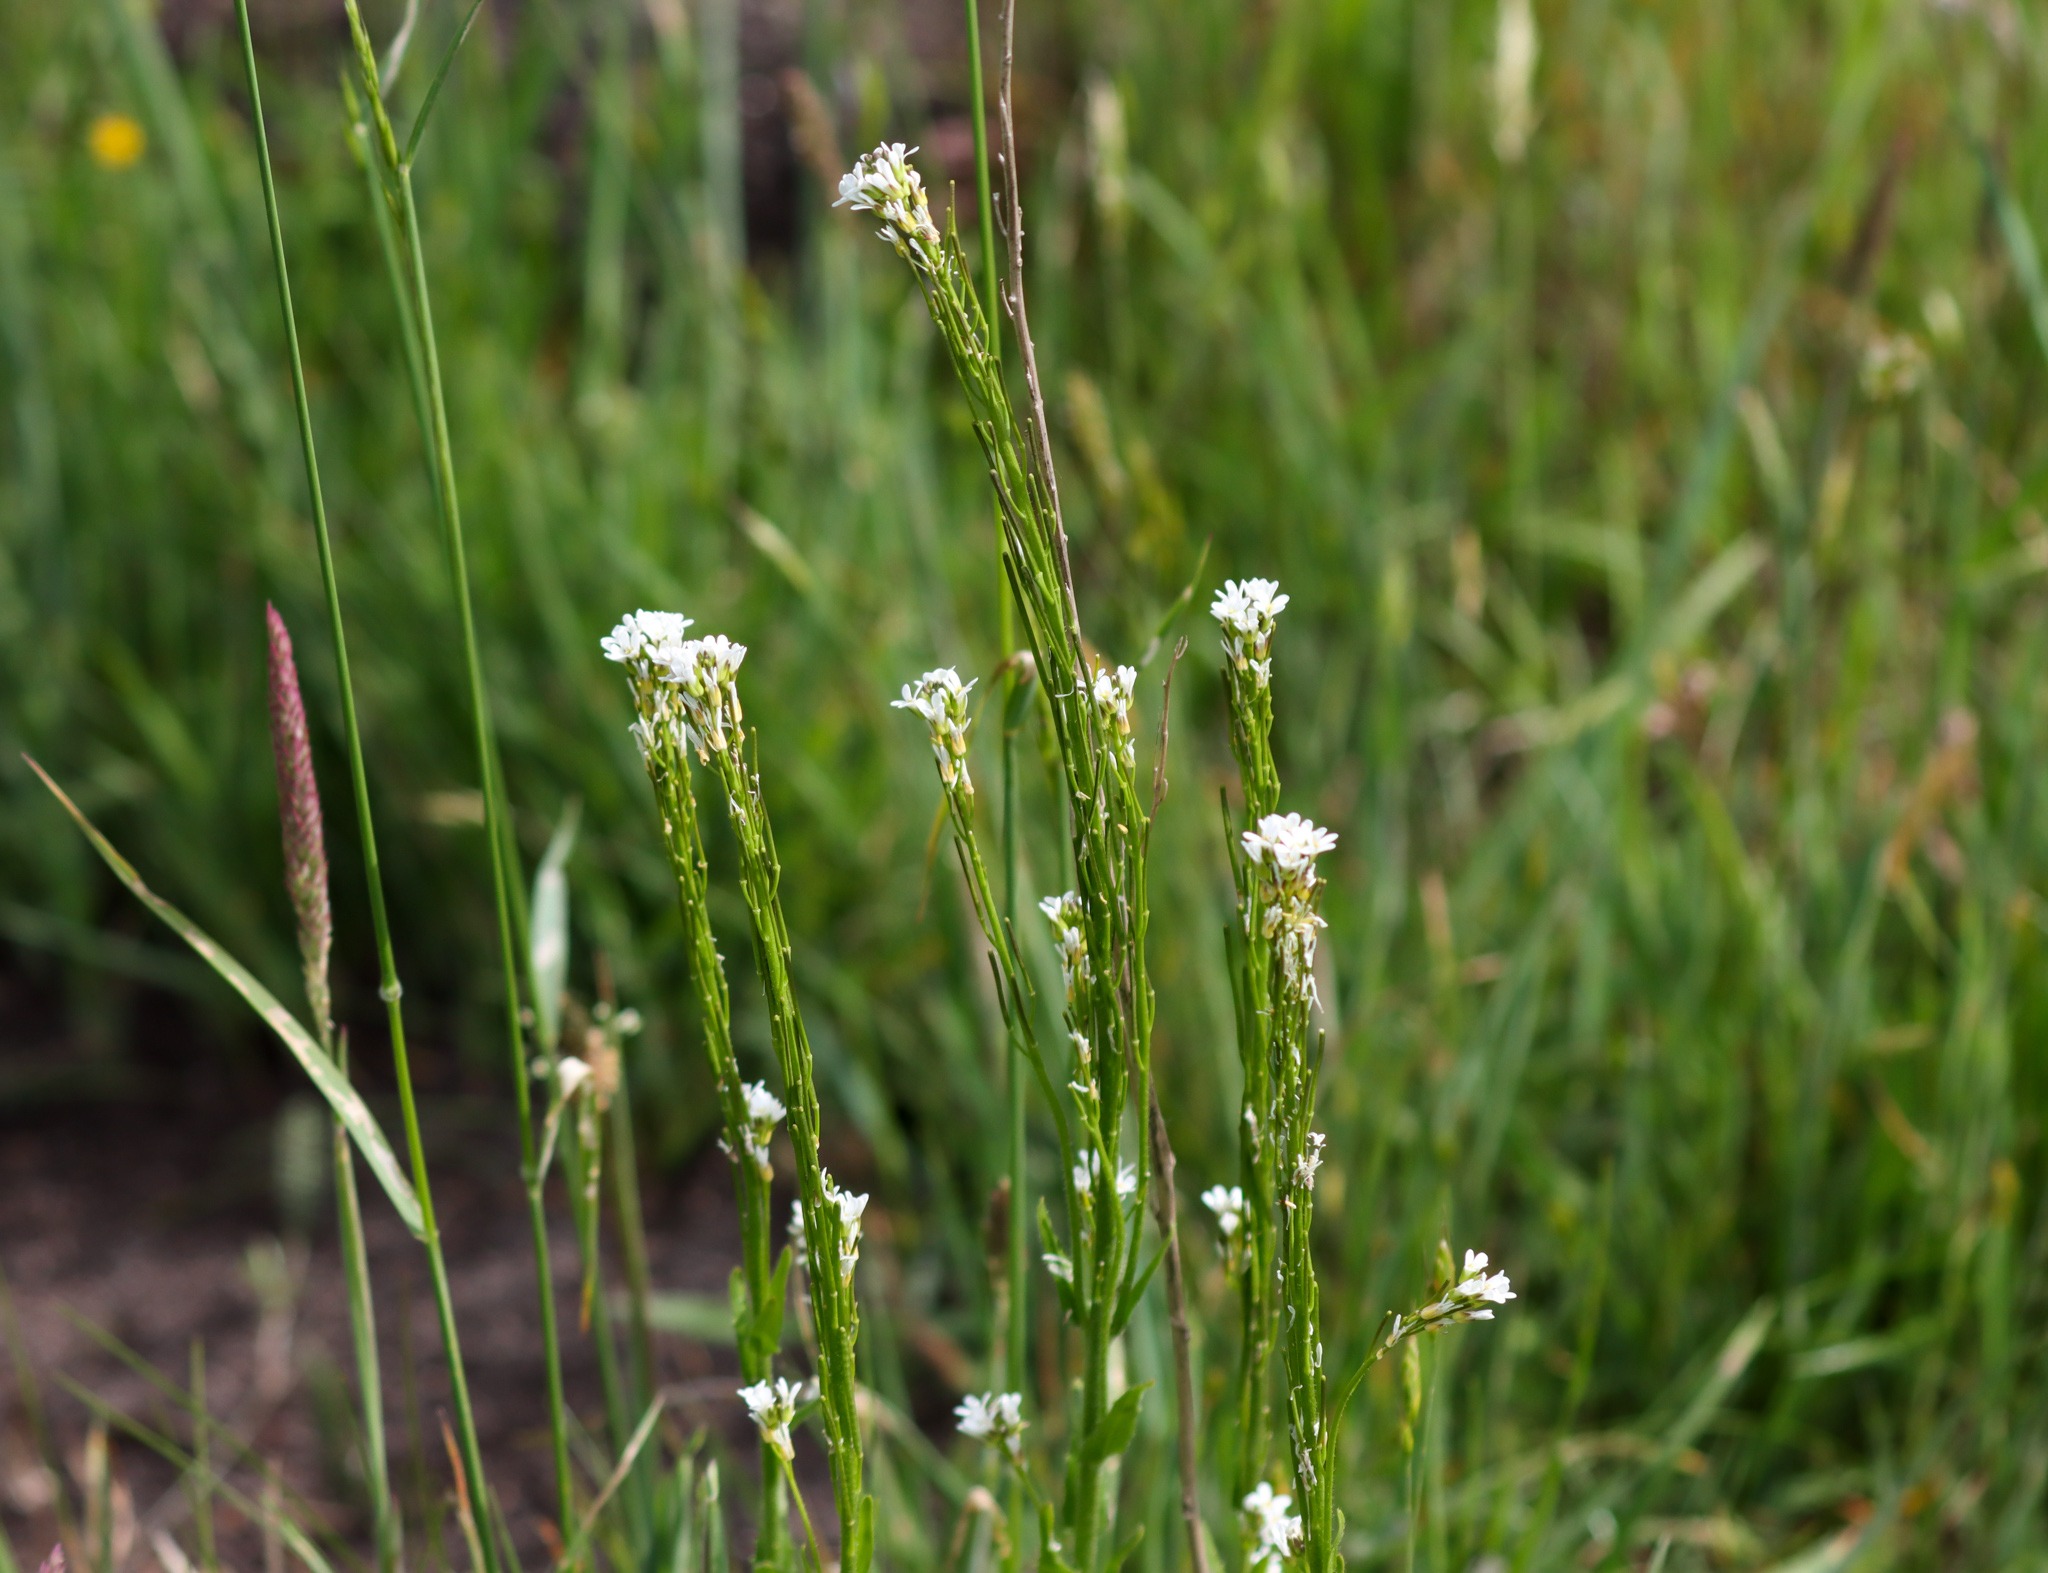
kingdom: Plantae
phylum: Tracheophyta
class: Magnoliopsida
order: Brassicales
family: Brassicaceae
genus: Arabis
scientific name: Arabis hirsuta
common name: Stivhåret kalkkarse
